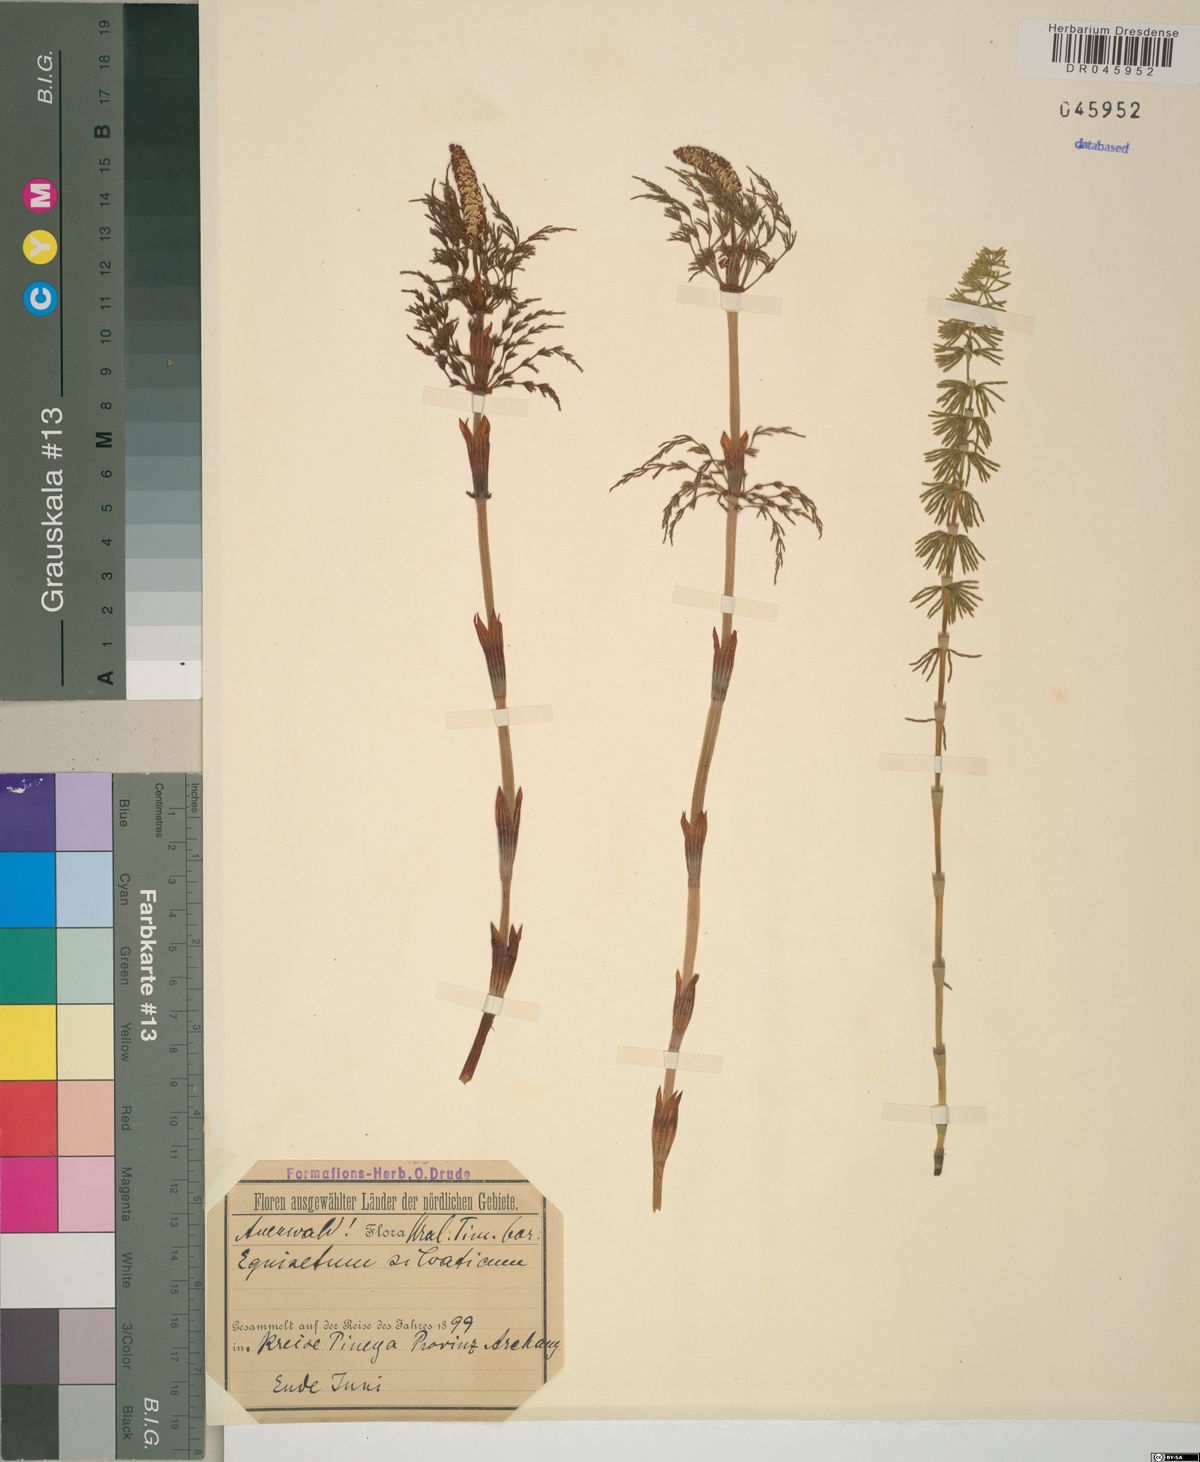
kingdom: Plantae
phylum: Tracheophyta
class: Polypodiopsida
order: Equisetales
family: Equisetaceae
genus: Equisetum
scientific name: Equisetum sylvaticum
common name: Wood horsetail
